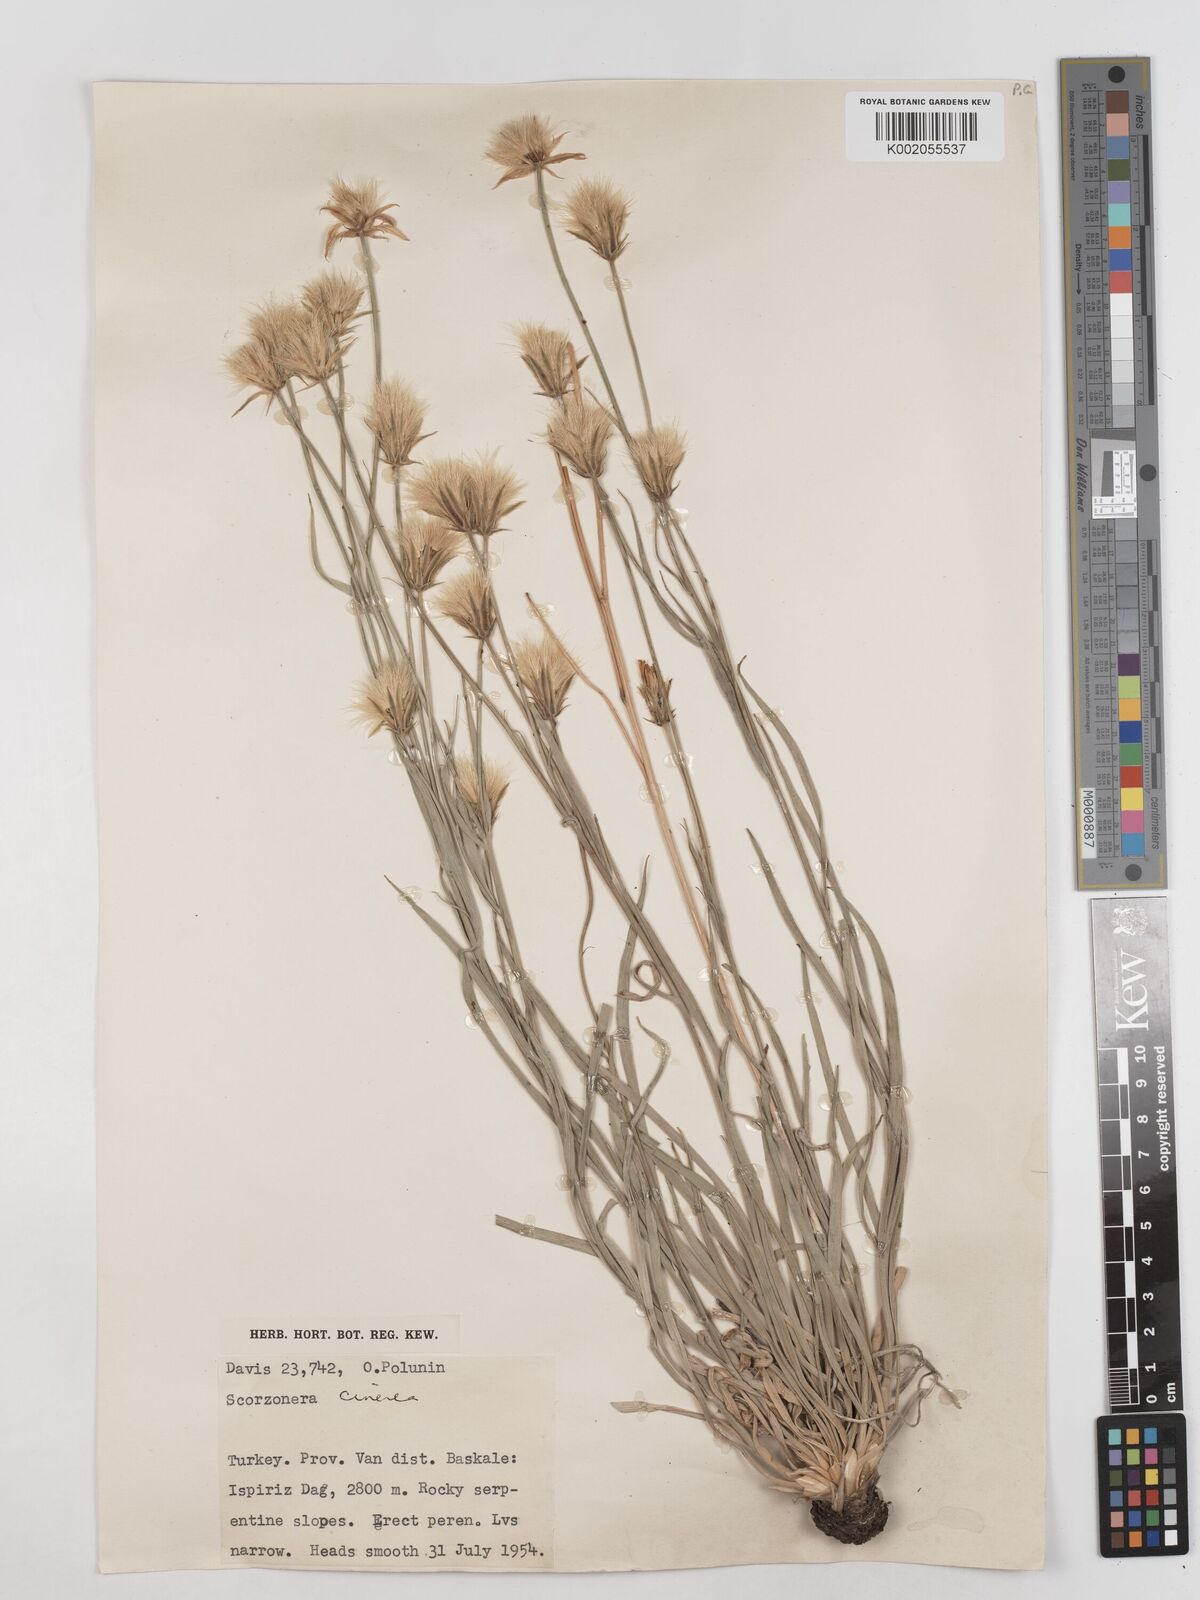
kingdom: Plantae
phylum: Tracheophyta
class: Magnoliopsida
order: Asterales
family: Asteraceae
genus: Cigdemia
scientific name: Cigdemia cinerea
